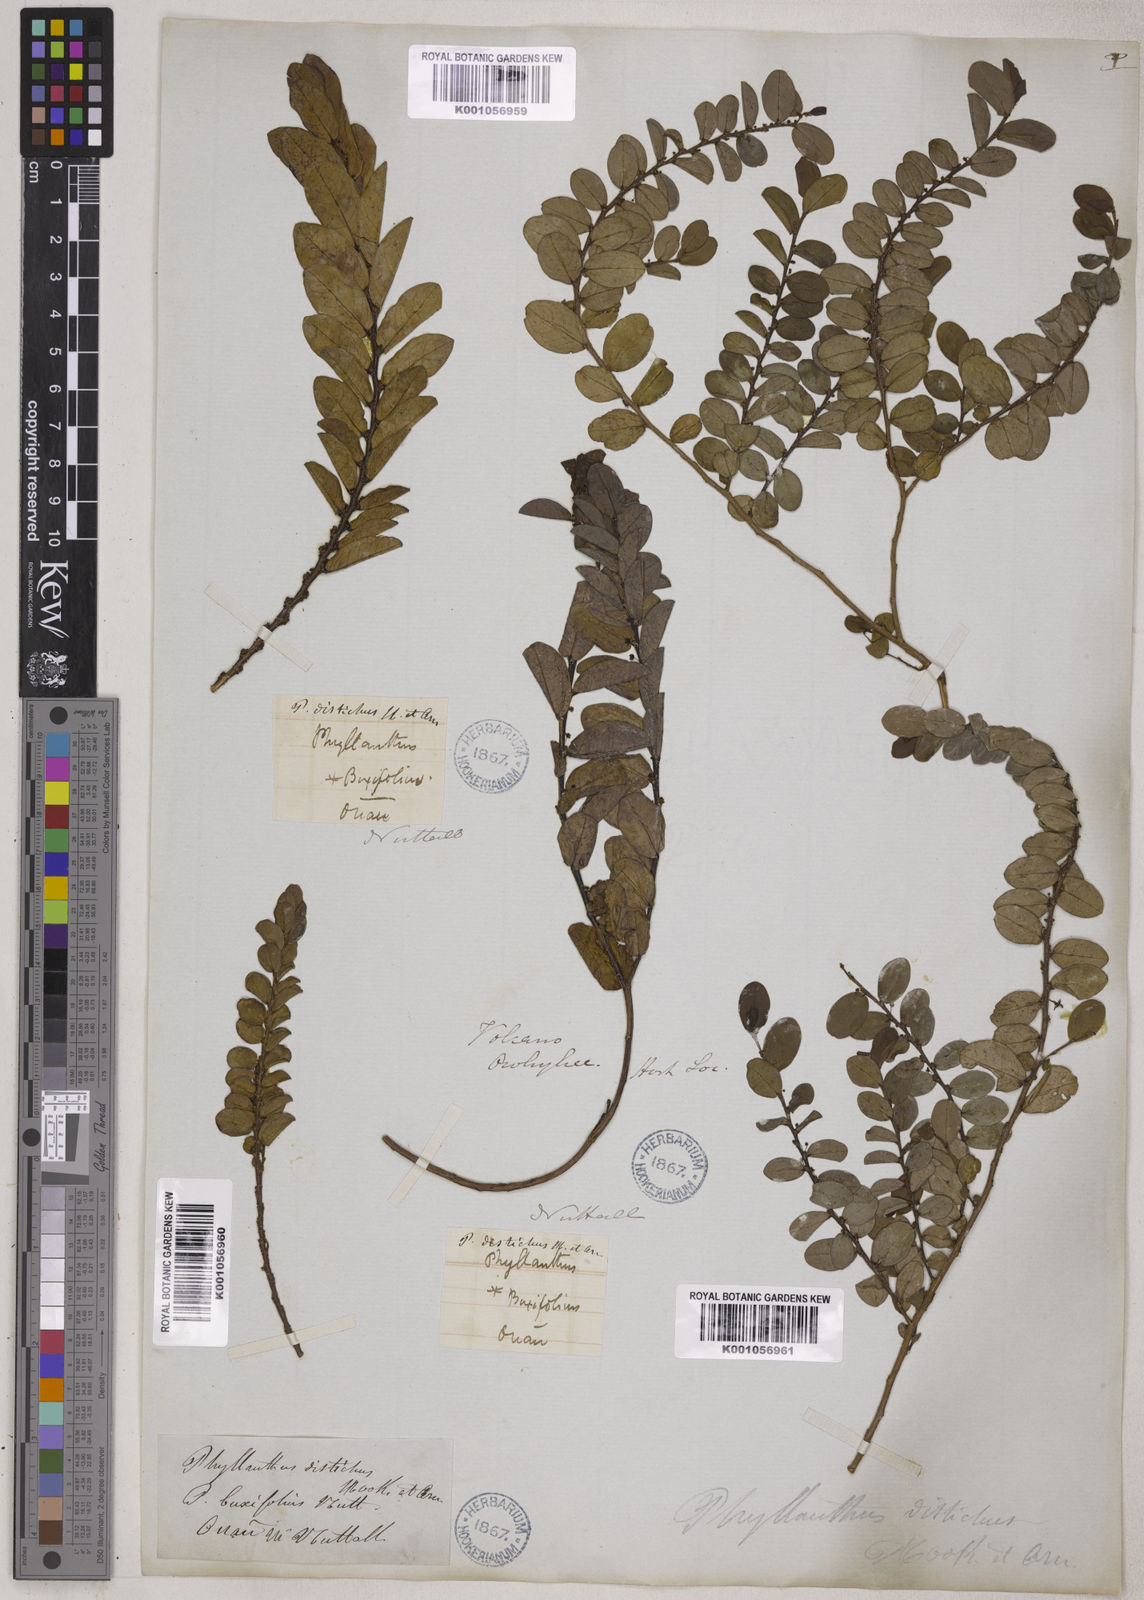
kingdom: Plantae
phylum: Tracheophyta
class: Magnoliopsida
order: Malpighiales
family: Phyllanthaceae
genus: Phyllanthus
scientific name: Phyllanthus distichus
